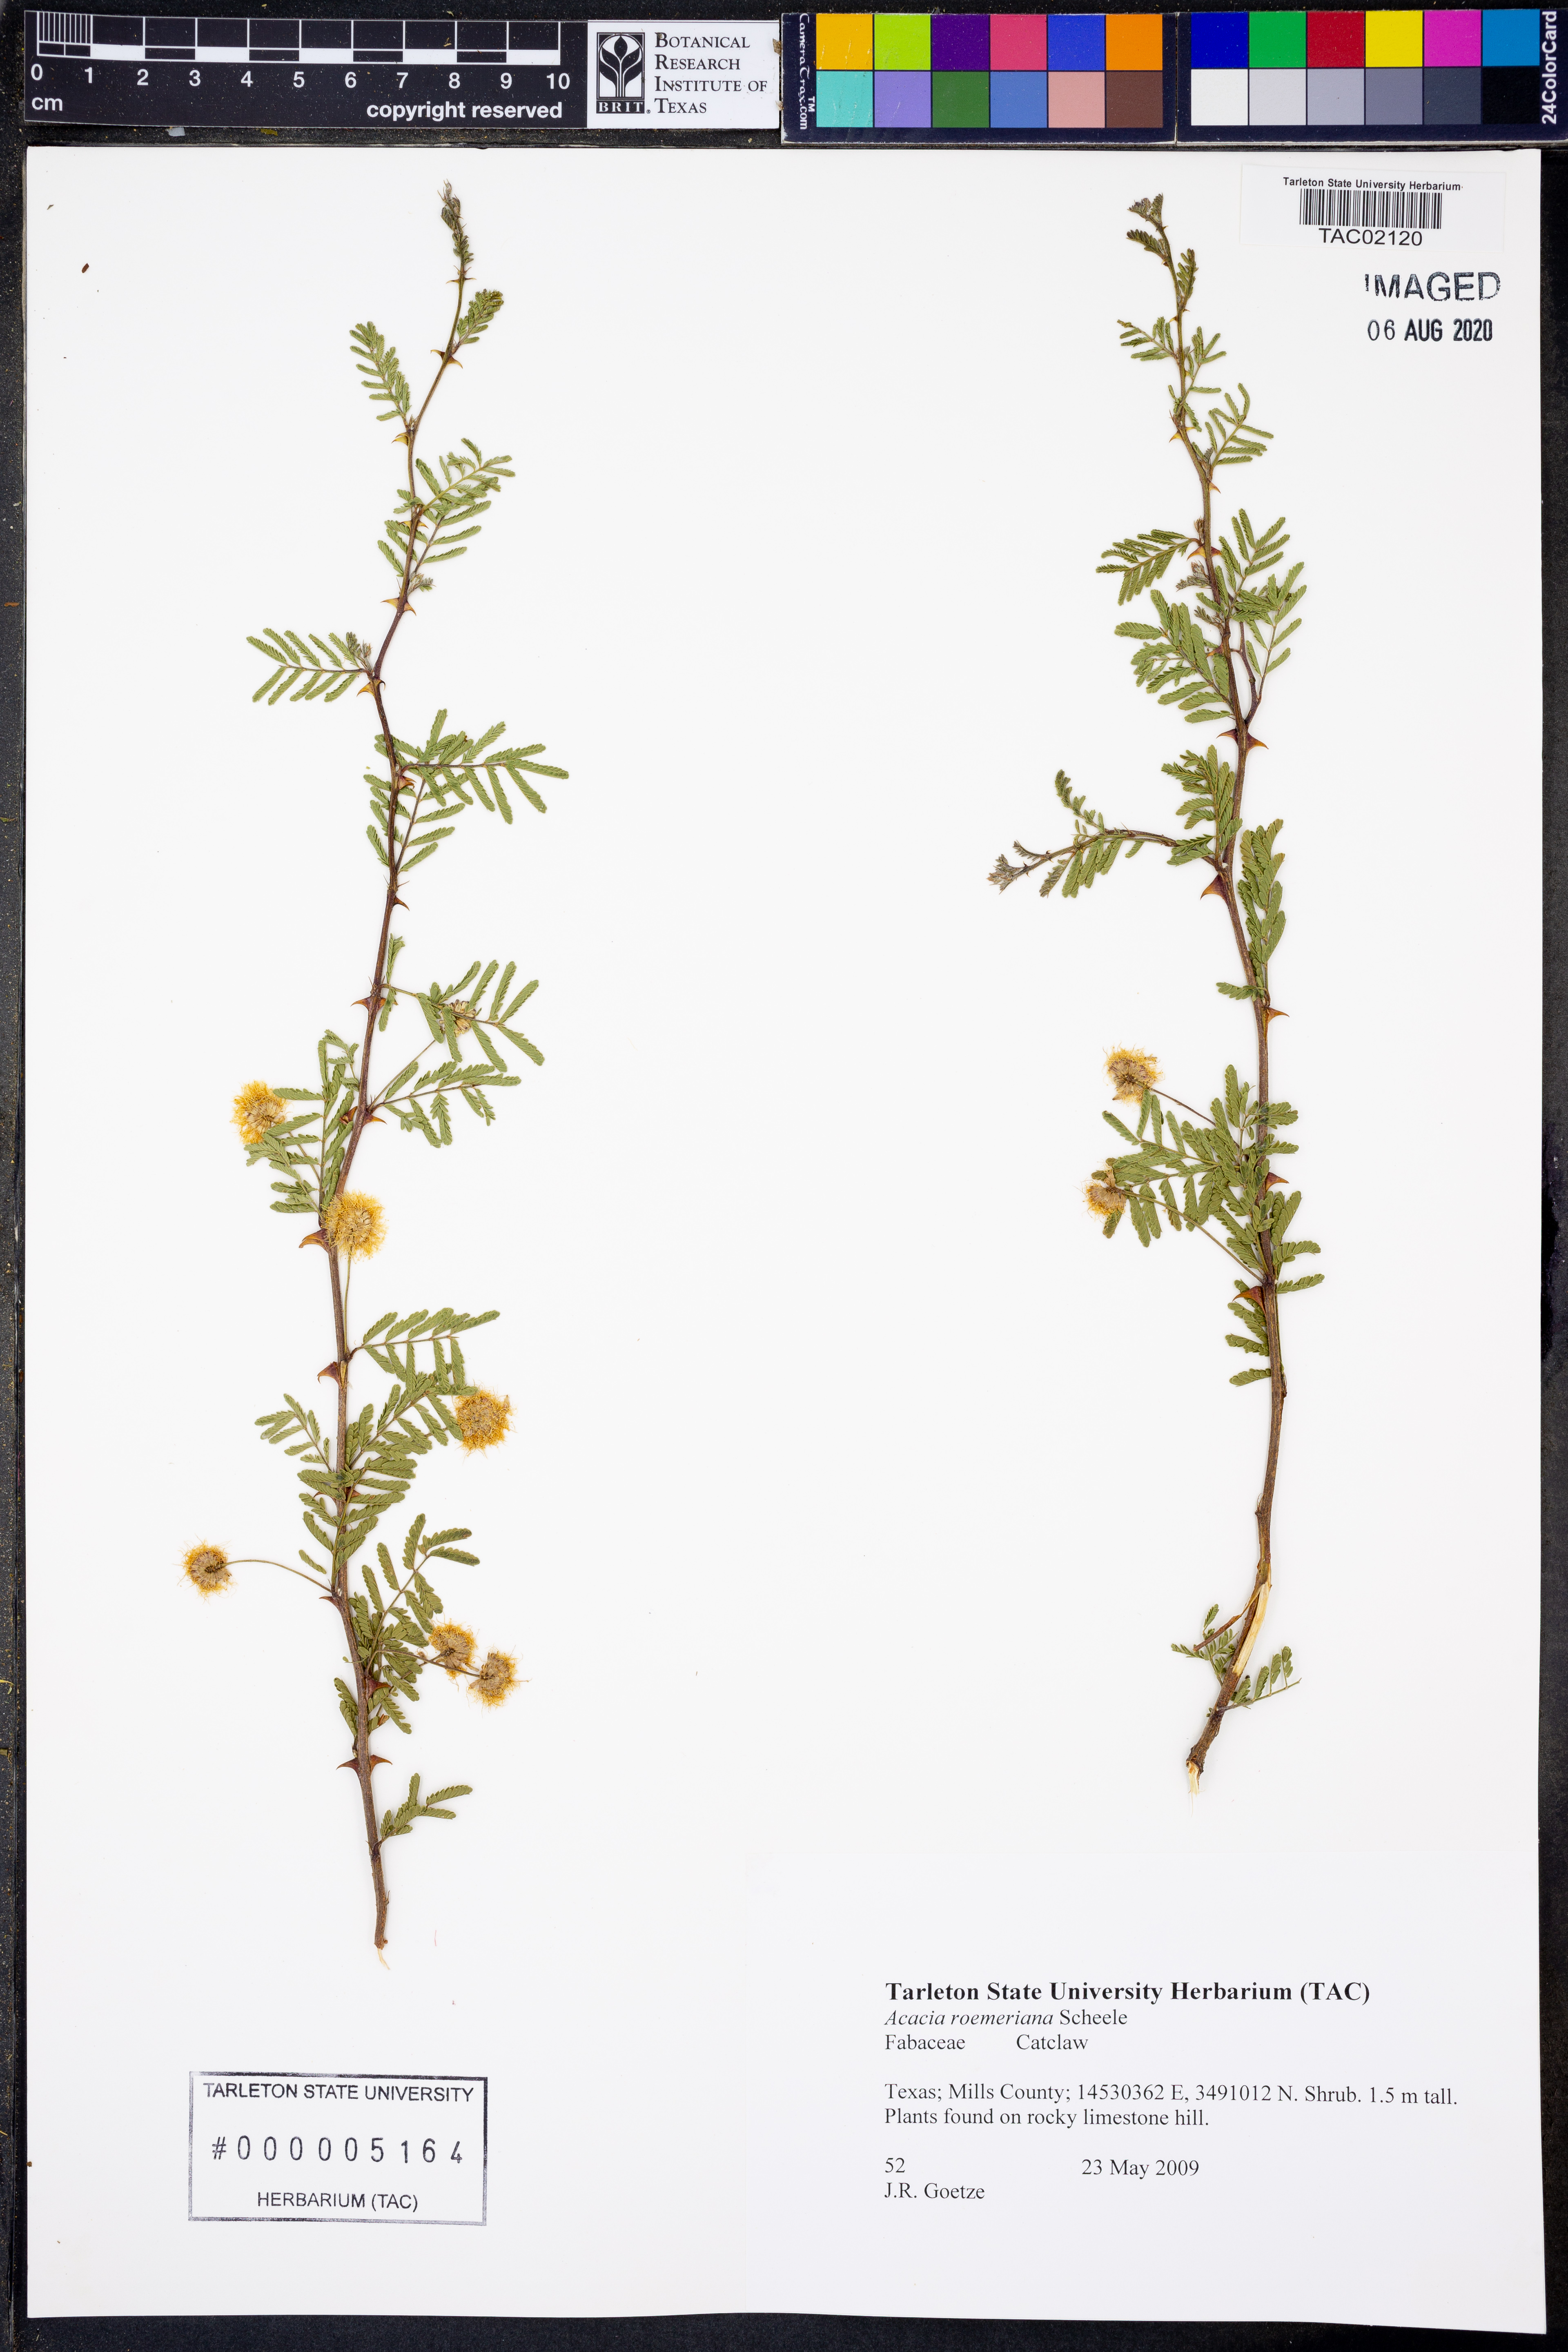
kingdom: Plantae
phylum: Tracheophyta
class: Magnoliopsida
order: Fabales
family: Fabaceae
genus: Senegalia
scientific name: Senegalia roemeriana
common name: Roemer's acacia
